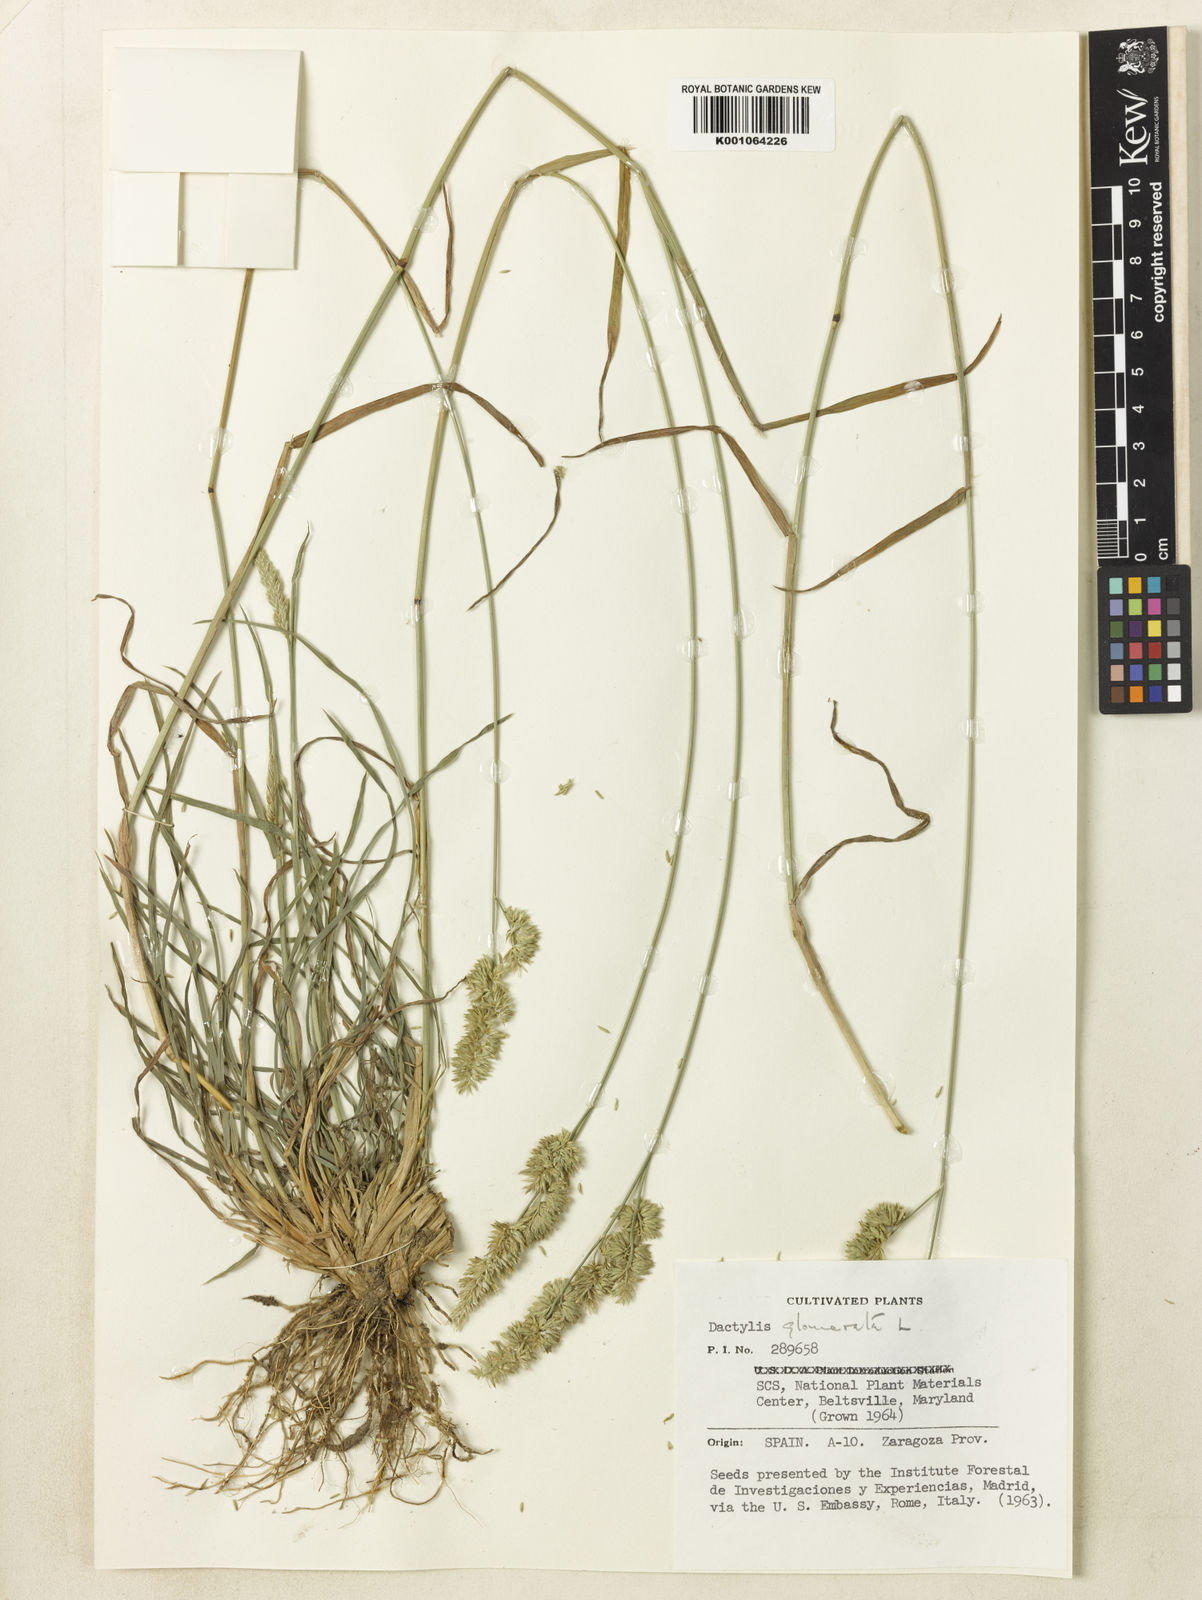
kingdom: Plantae
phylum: Tracheophyta
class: Liliopsida
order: Poales
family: Poaceae
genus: Dactylis
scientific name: Dactylis glomerata
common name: Orchardgrass
